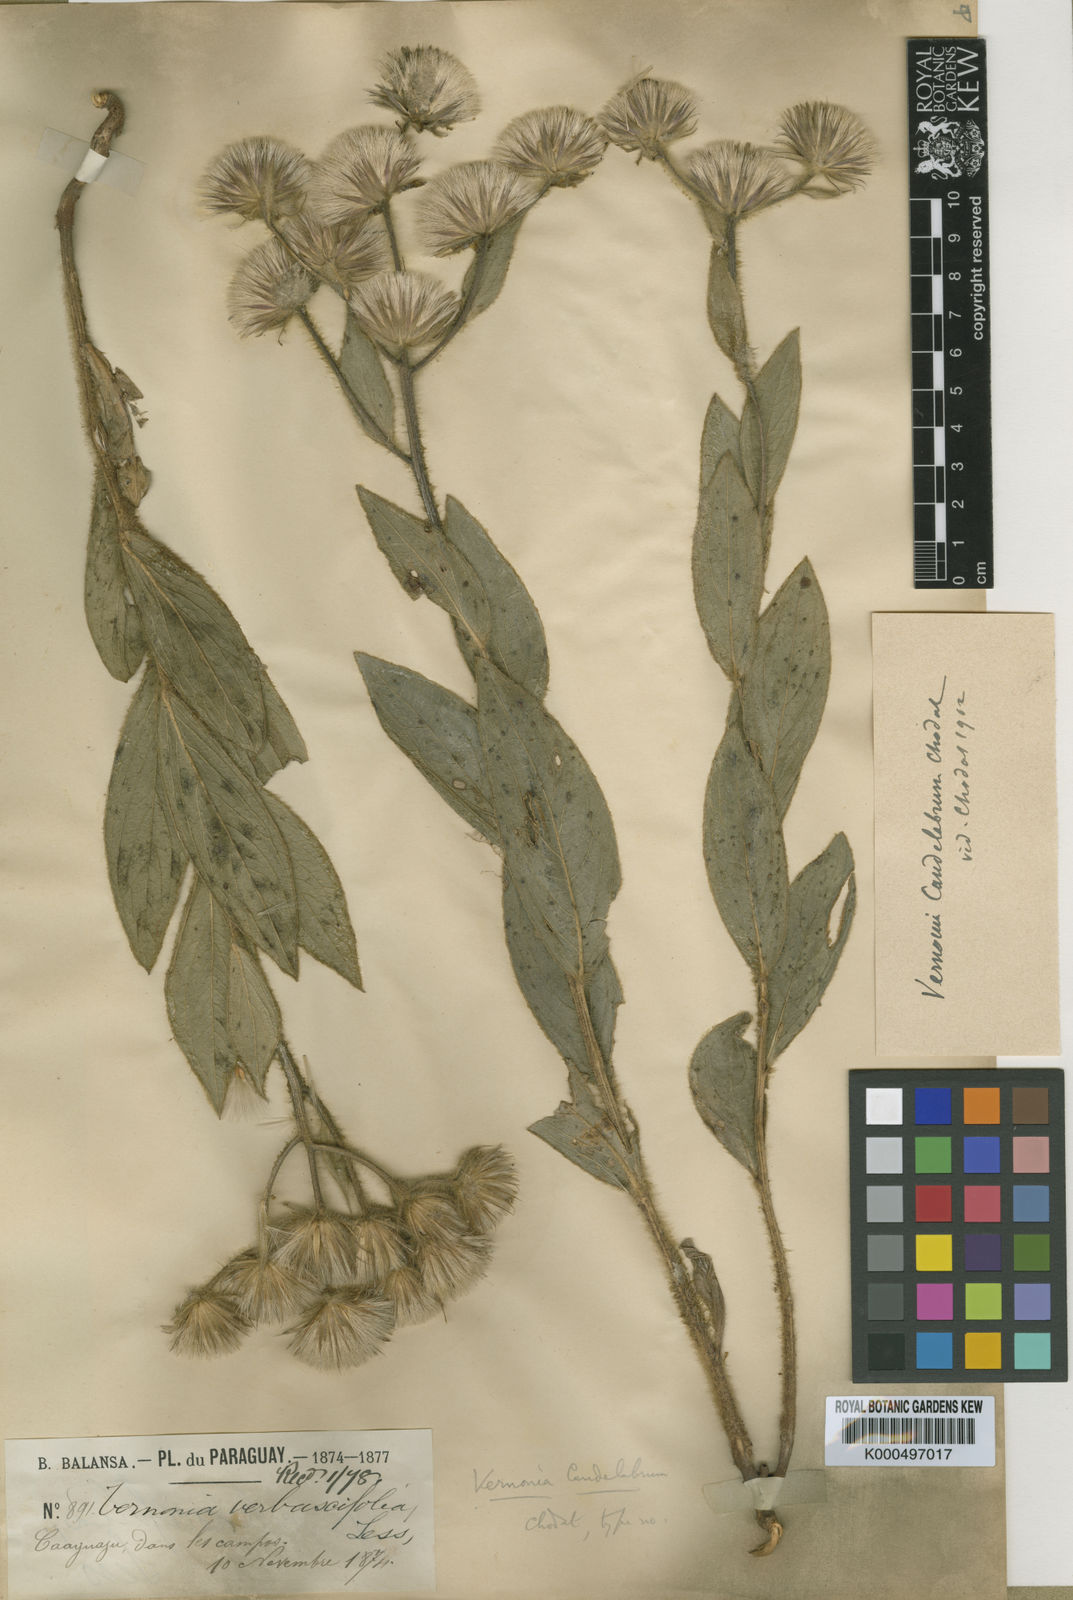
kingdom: Plantae
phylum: Tracheophyta
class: Magnoliopsida
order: Asterales
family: Asteraceae
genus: Chrysolaena
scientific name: Chrysolaena candelabrum
